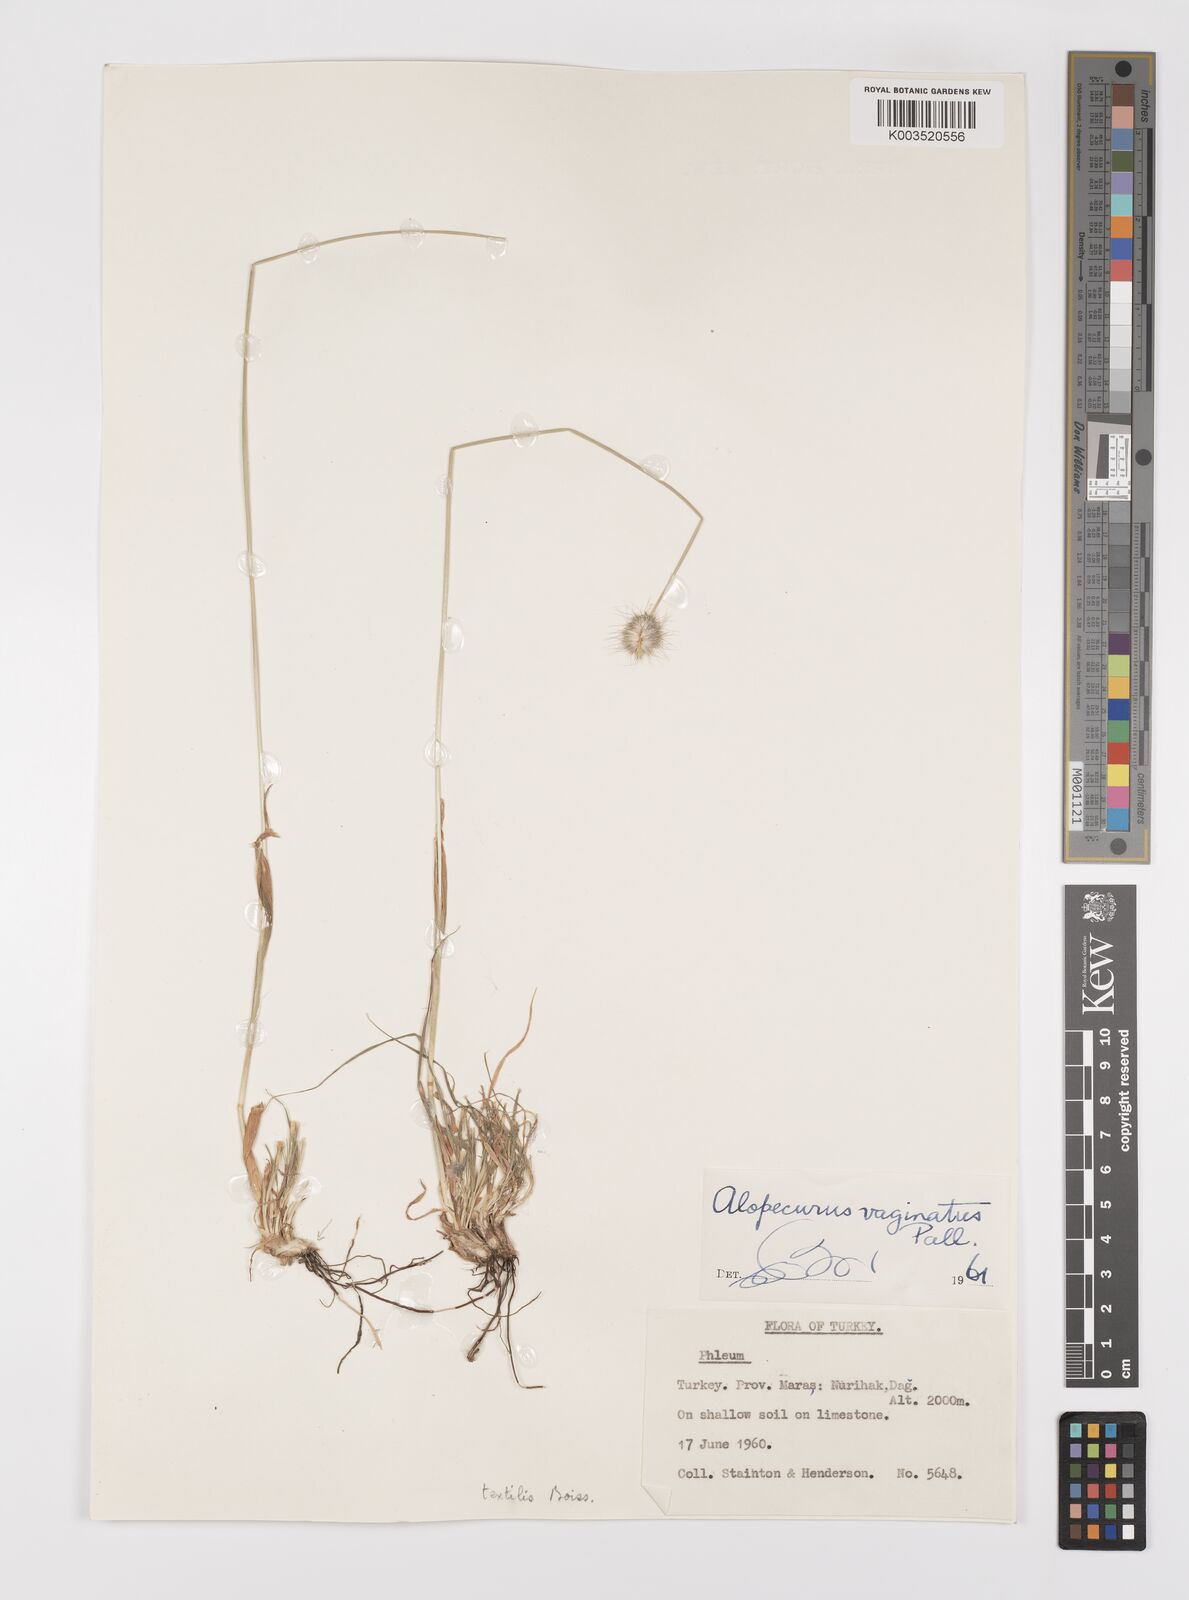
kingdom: Plantae
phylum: Tracheophyta
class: Liliopsida
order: Poales
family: Poaceae
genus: Alopecurus
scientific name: Alopecurus textilis
